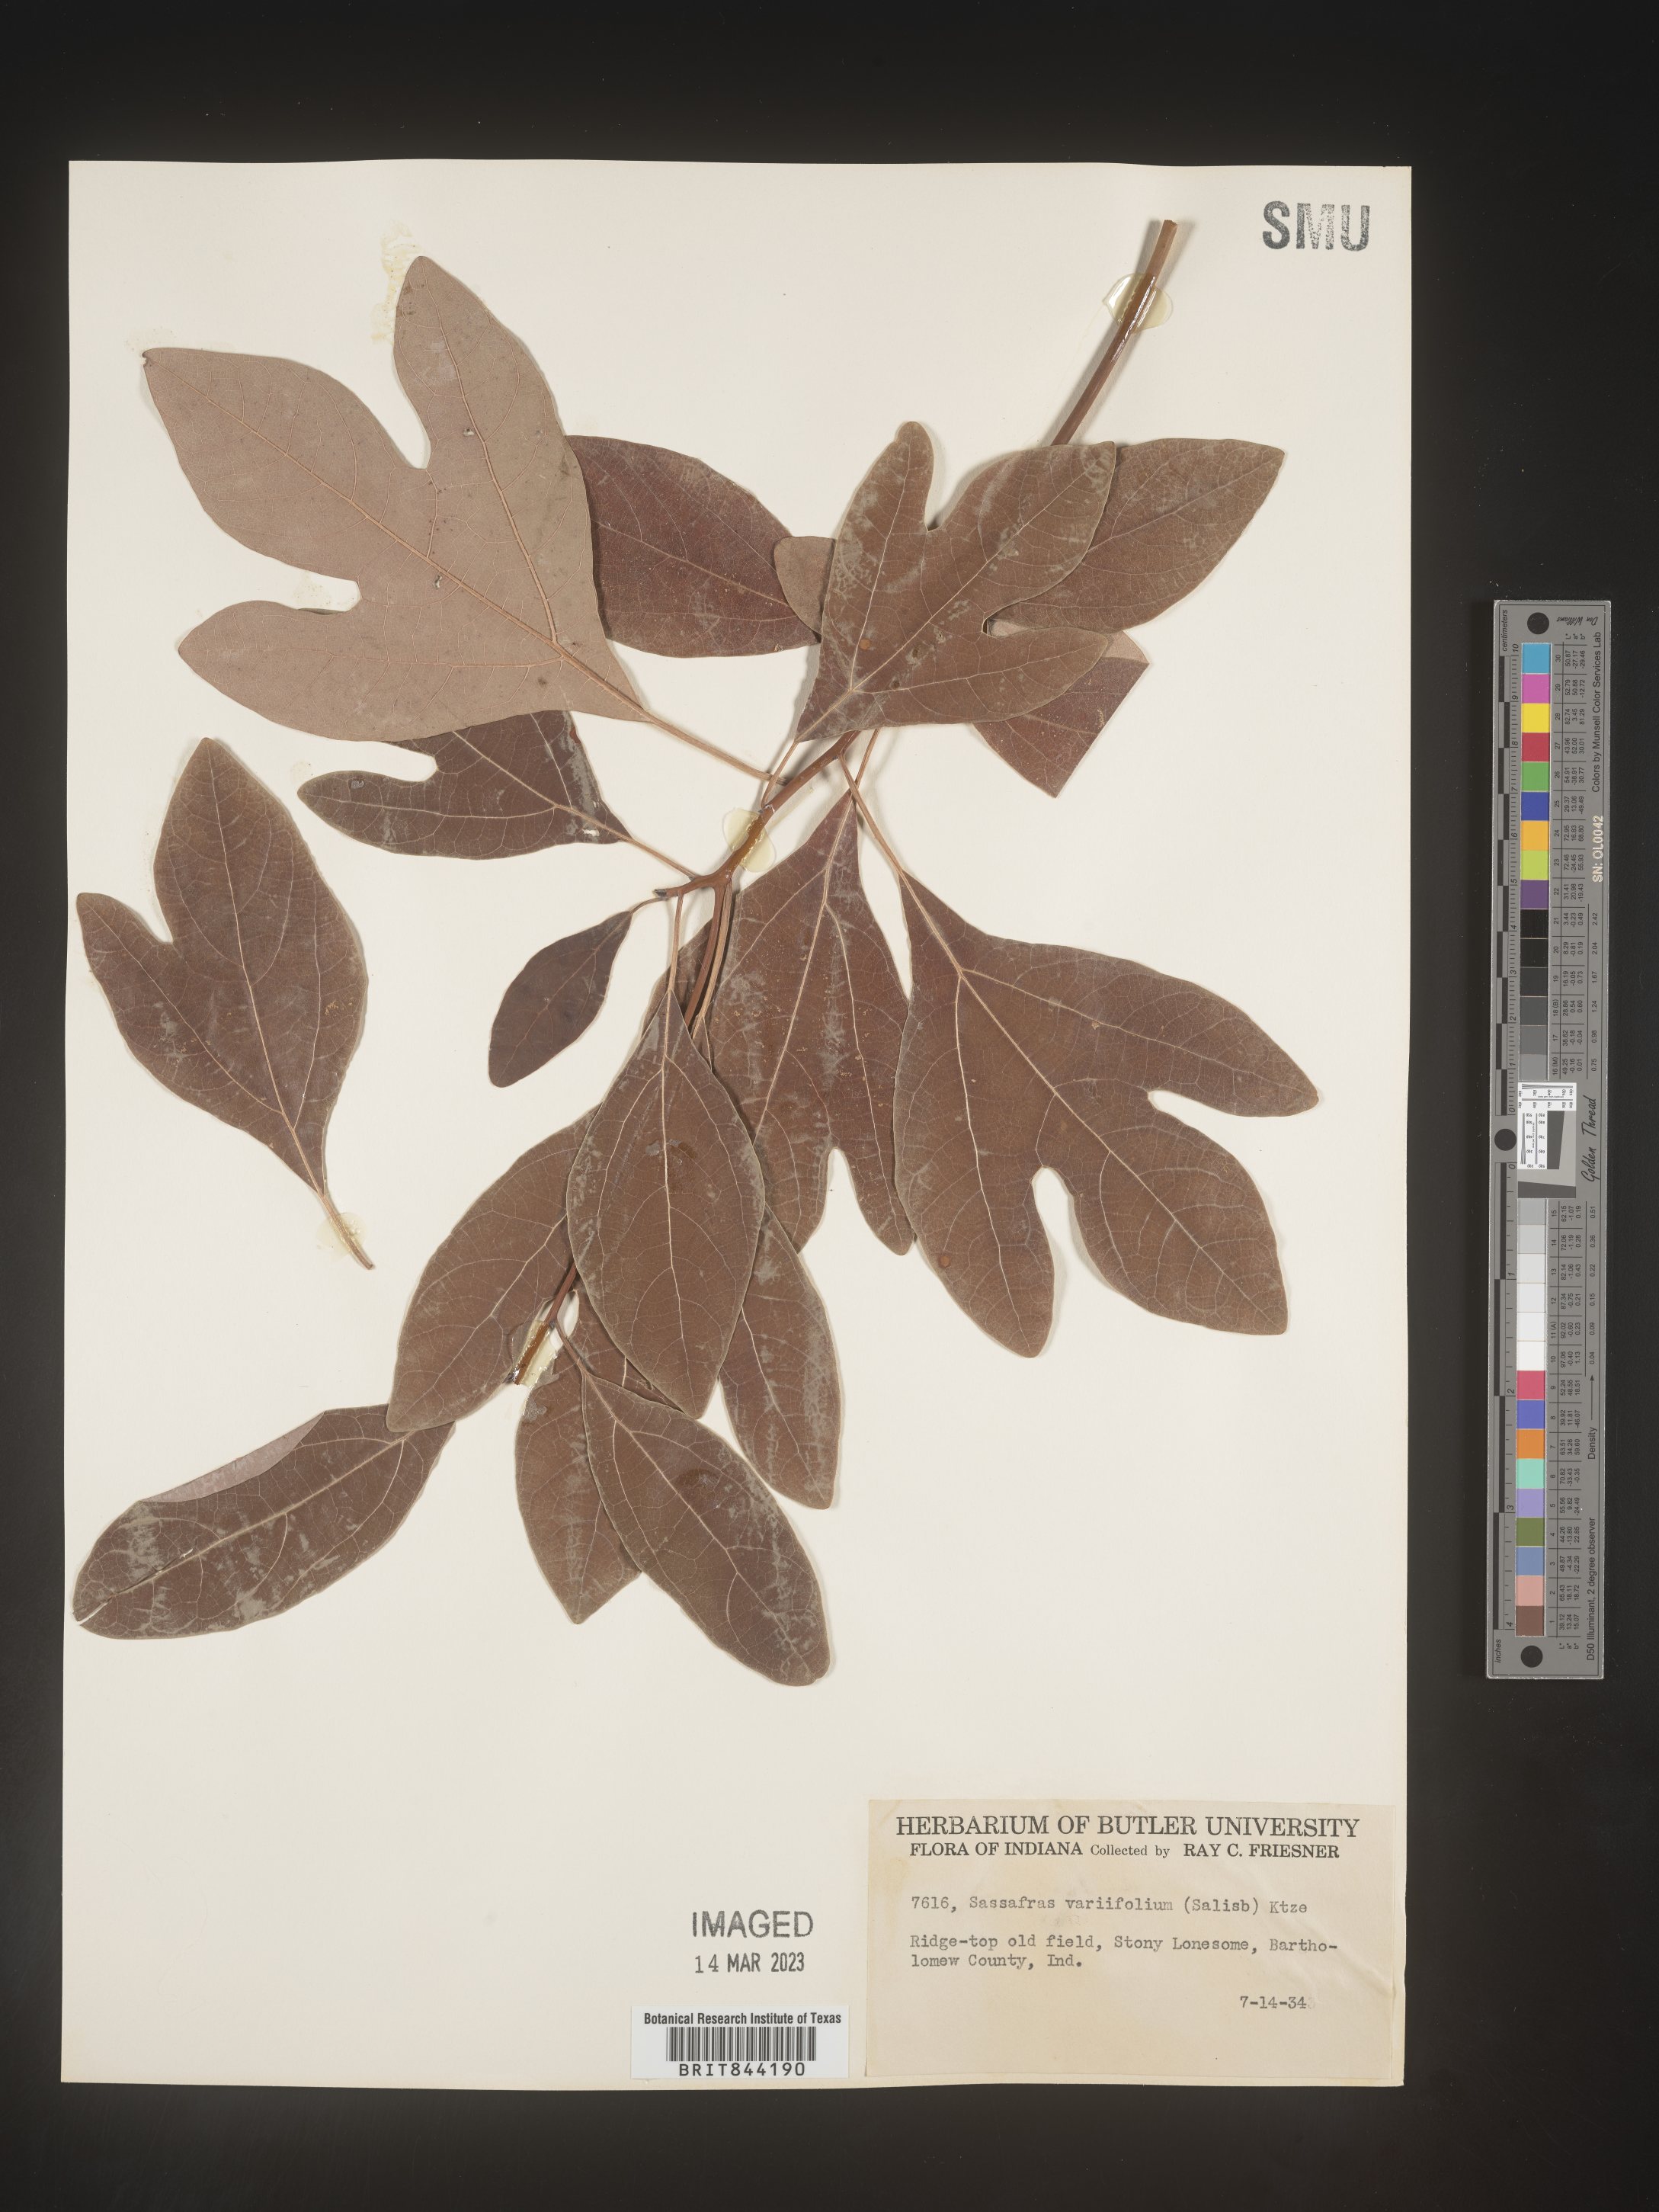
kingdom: Plantae
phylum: Tracheophyta
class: Magnoliopsida
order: Laurales
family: Lauraceae
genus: Sassafras
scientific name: Sassafras albidum
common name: Sassafras
